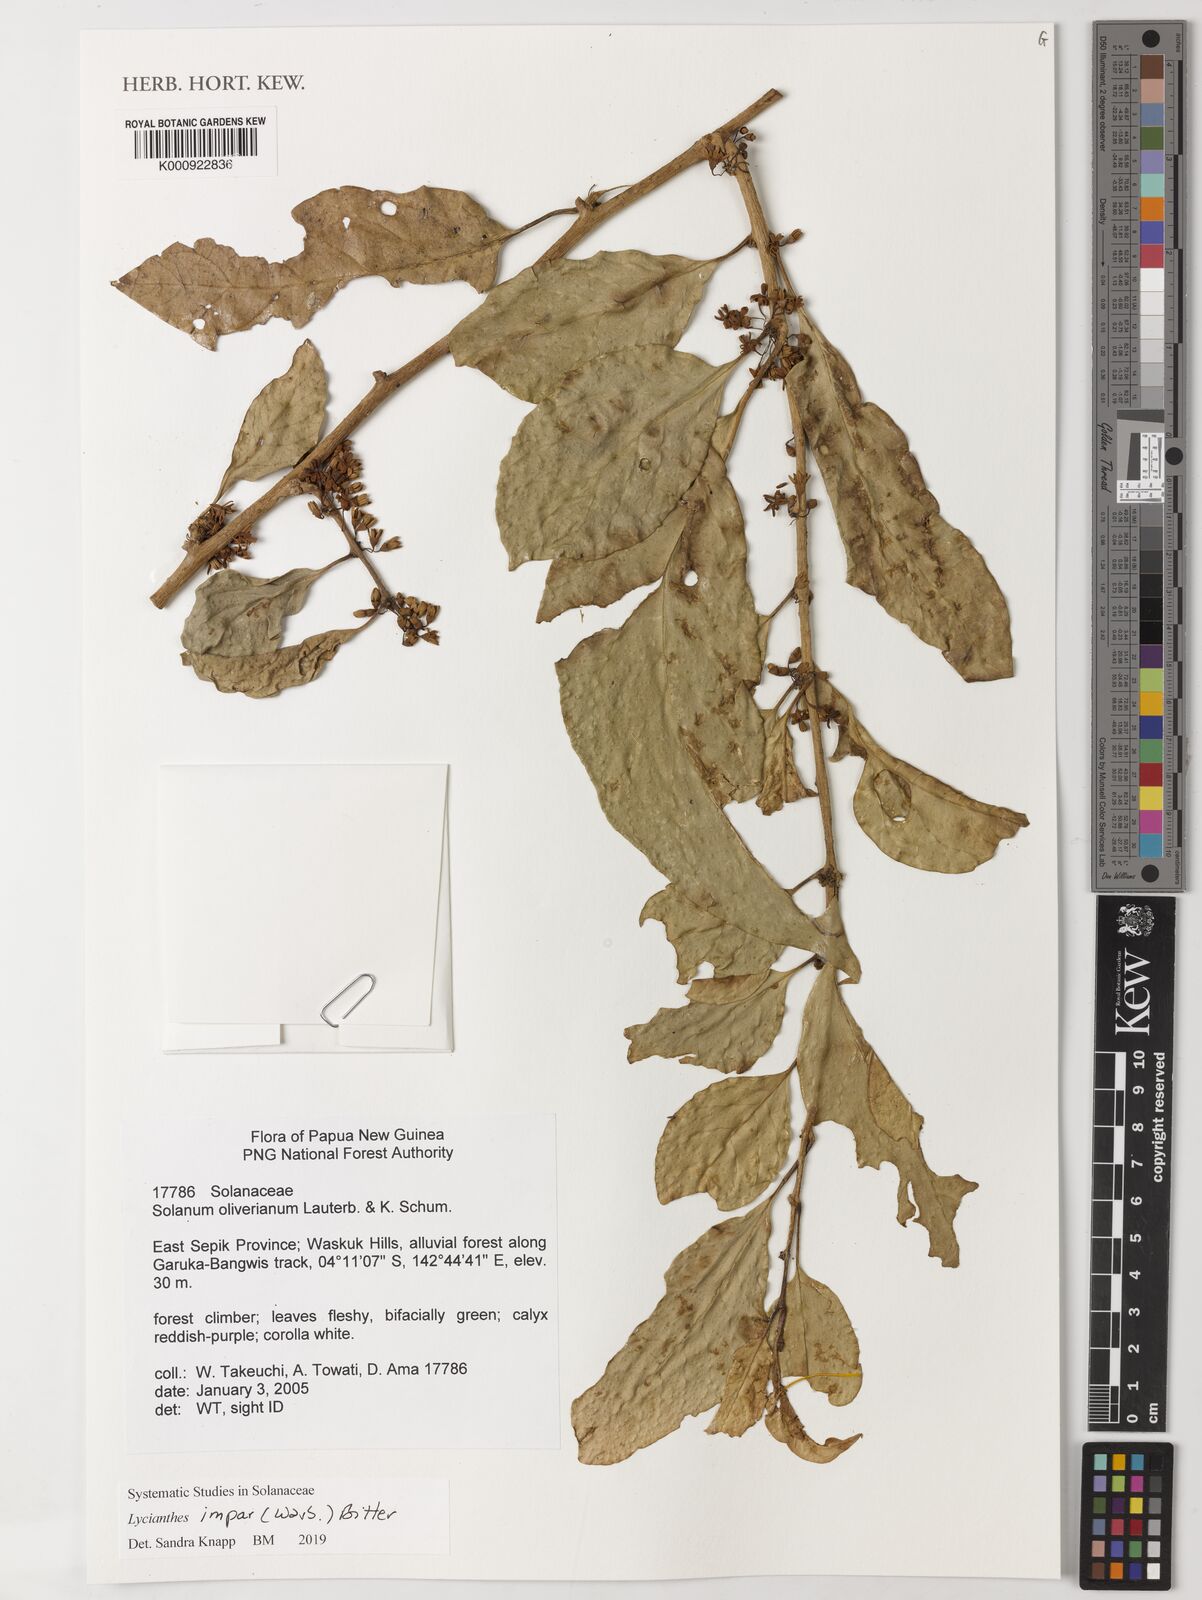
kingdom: Plantae
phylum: Tracheophyta
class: Magnoliopsida
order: Solanales
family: Solanaceae
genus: Lycianthes
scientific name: Lycianthes impar
